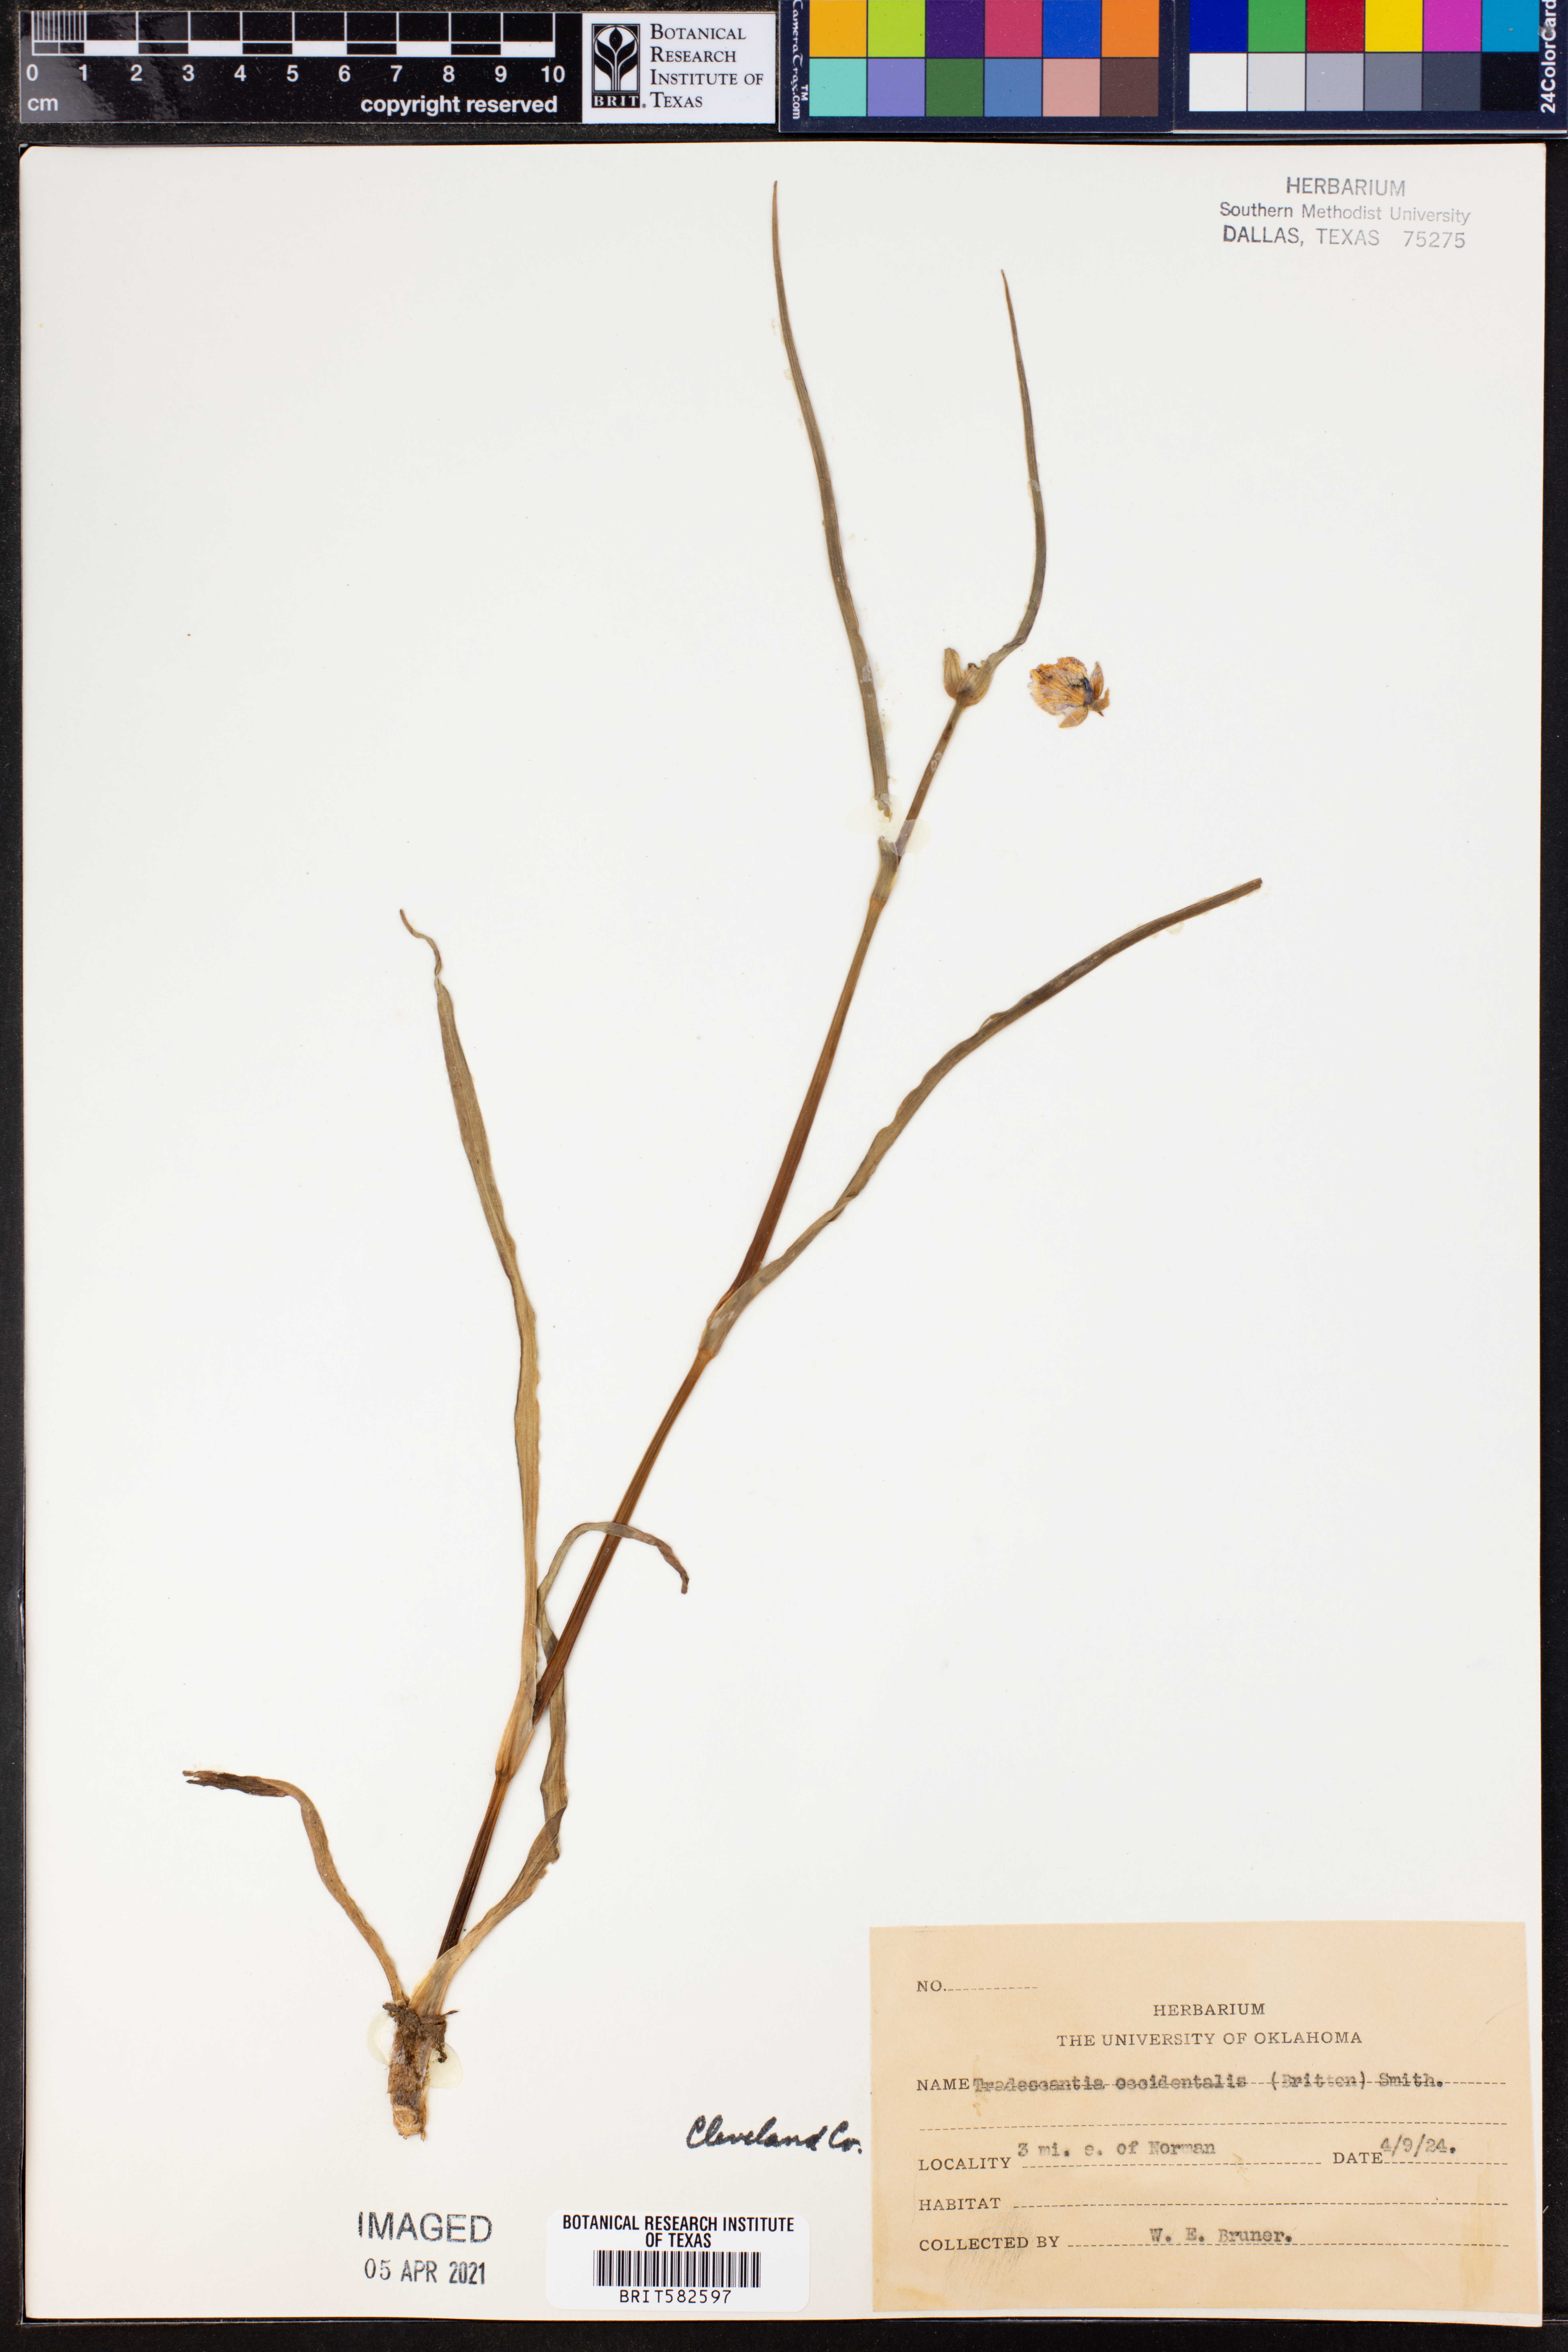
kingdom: Plantae
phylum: Tracheophyta
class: Liliopsida
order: Commelinales
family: Commelinaceae
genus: Tradescantia
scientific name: Tradescantia occidentalis
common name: Prairie spiderwort
